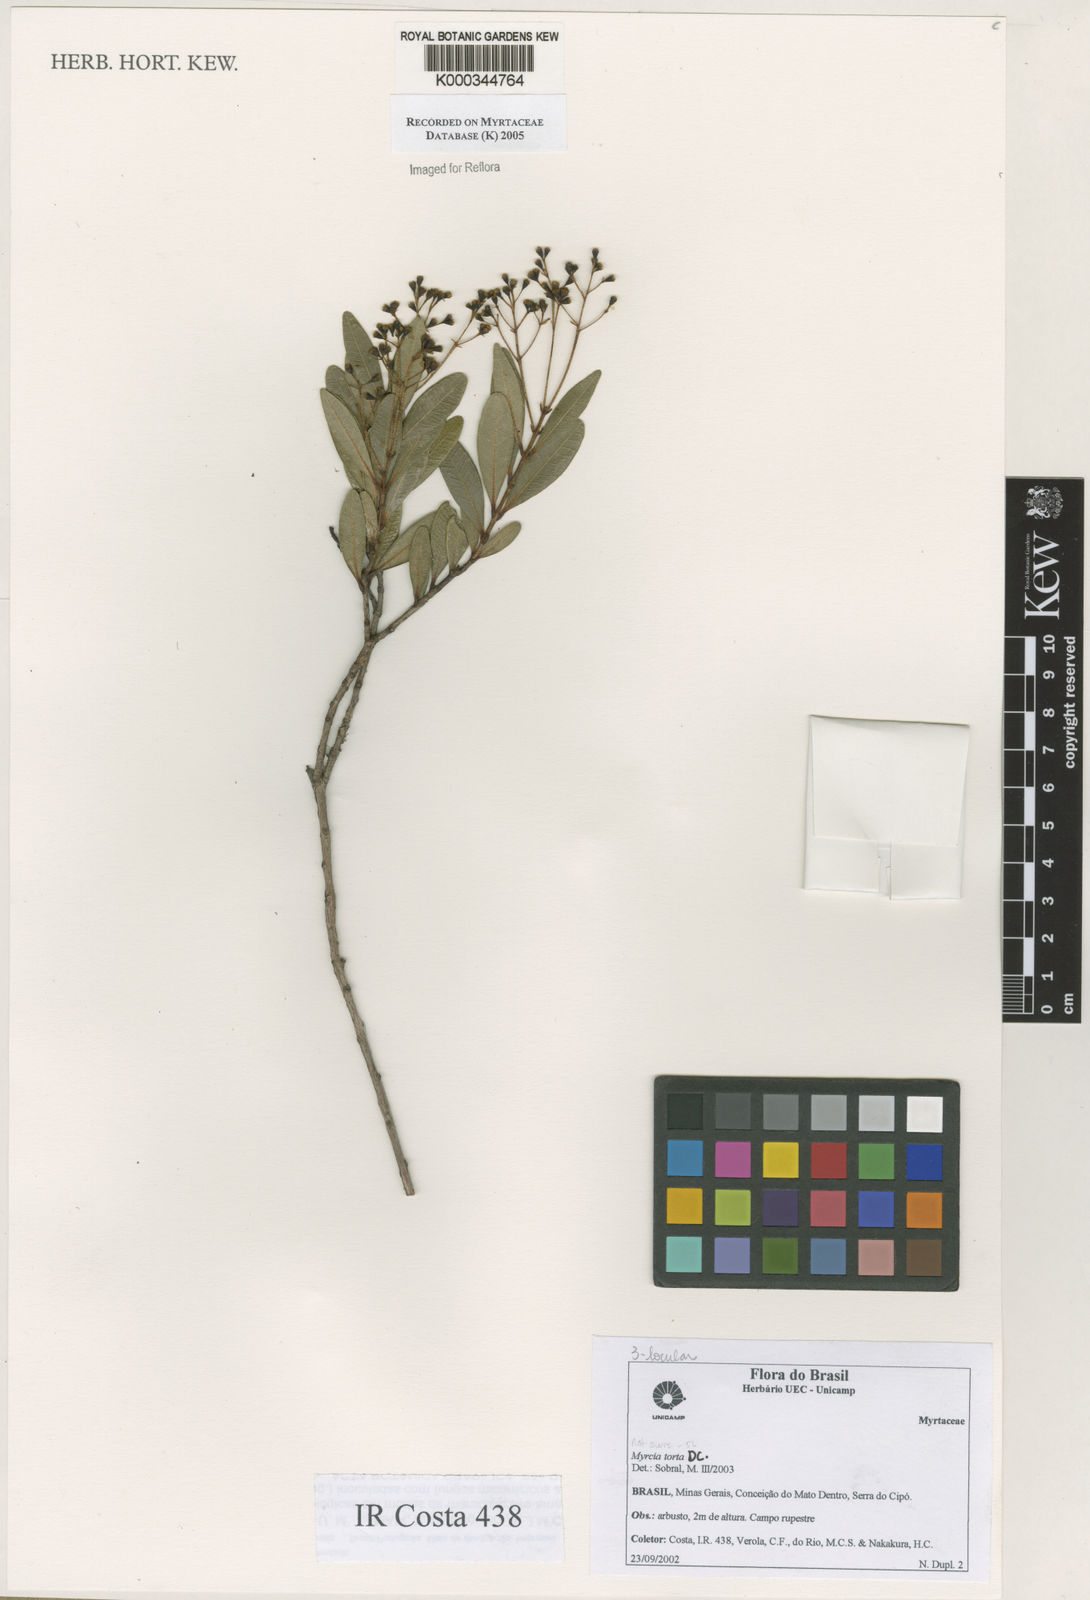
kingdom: Plantae
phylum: Tracheophyta
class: Magnoliopsida
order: Myrtales
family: Myrtaceae
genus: Myrcia
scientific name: Myrcia guianensis
